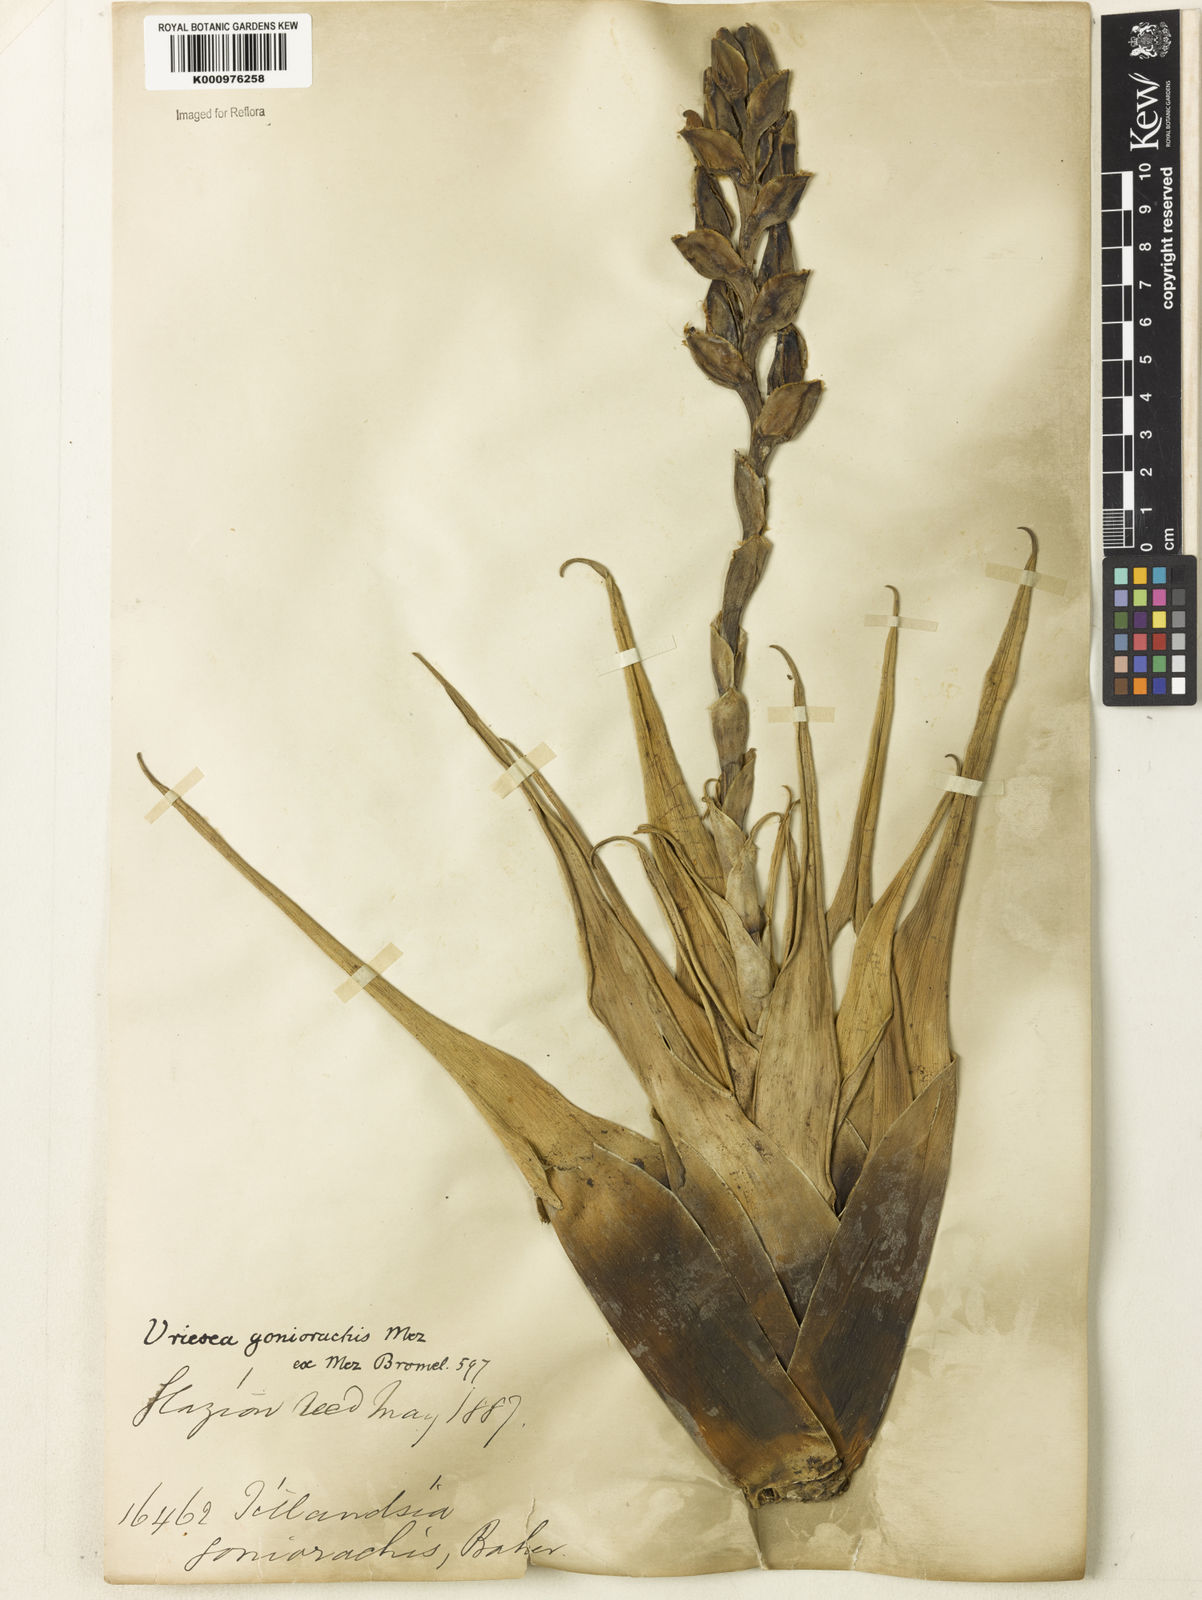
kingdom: Plantae
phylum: Tracheophyta
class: Liliopsida
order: Poales
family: Bromeliaceae
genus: Stigmatodon
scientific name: Stigmatodon goniorachis
